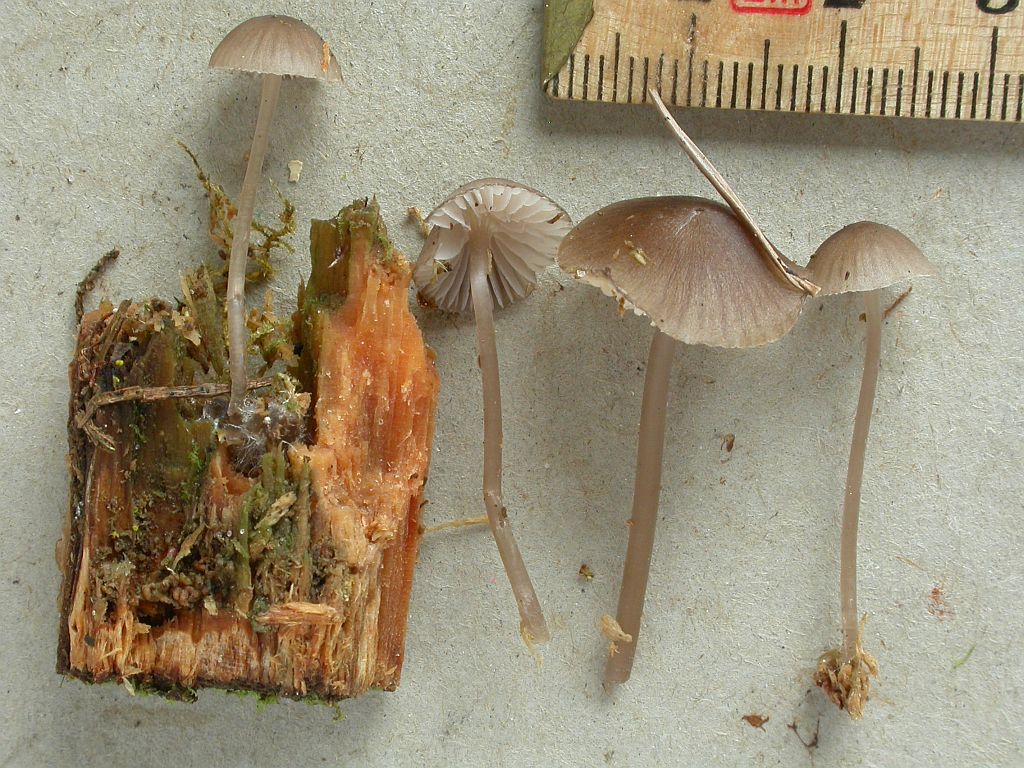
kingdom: Fungi
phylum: Basidiomycota
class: Agaricomycetes
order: Agaricales
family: Mycenaceae
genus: Mycena
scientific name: Mycena
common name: huesvamp
